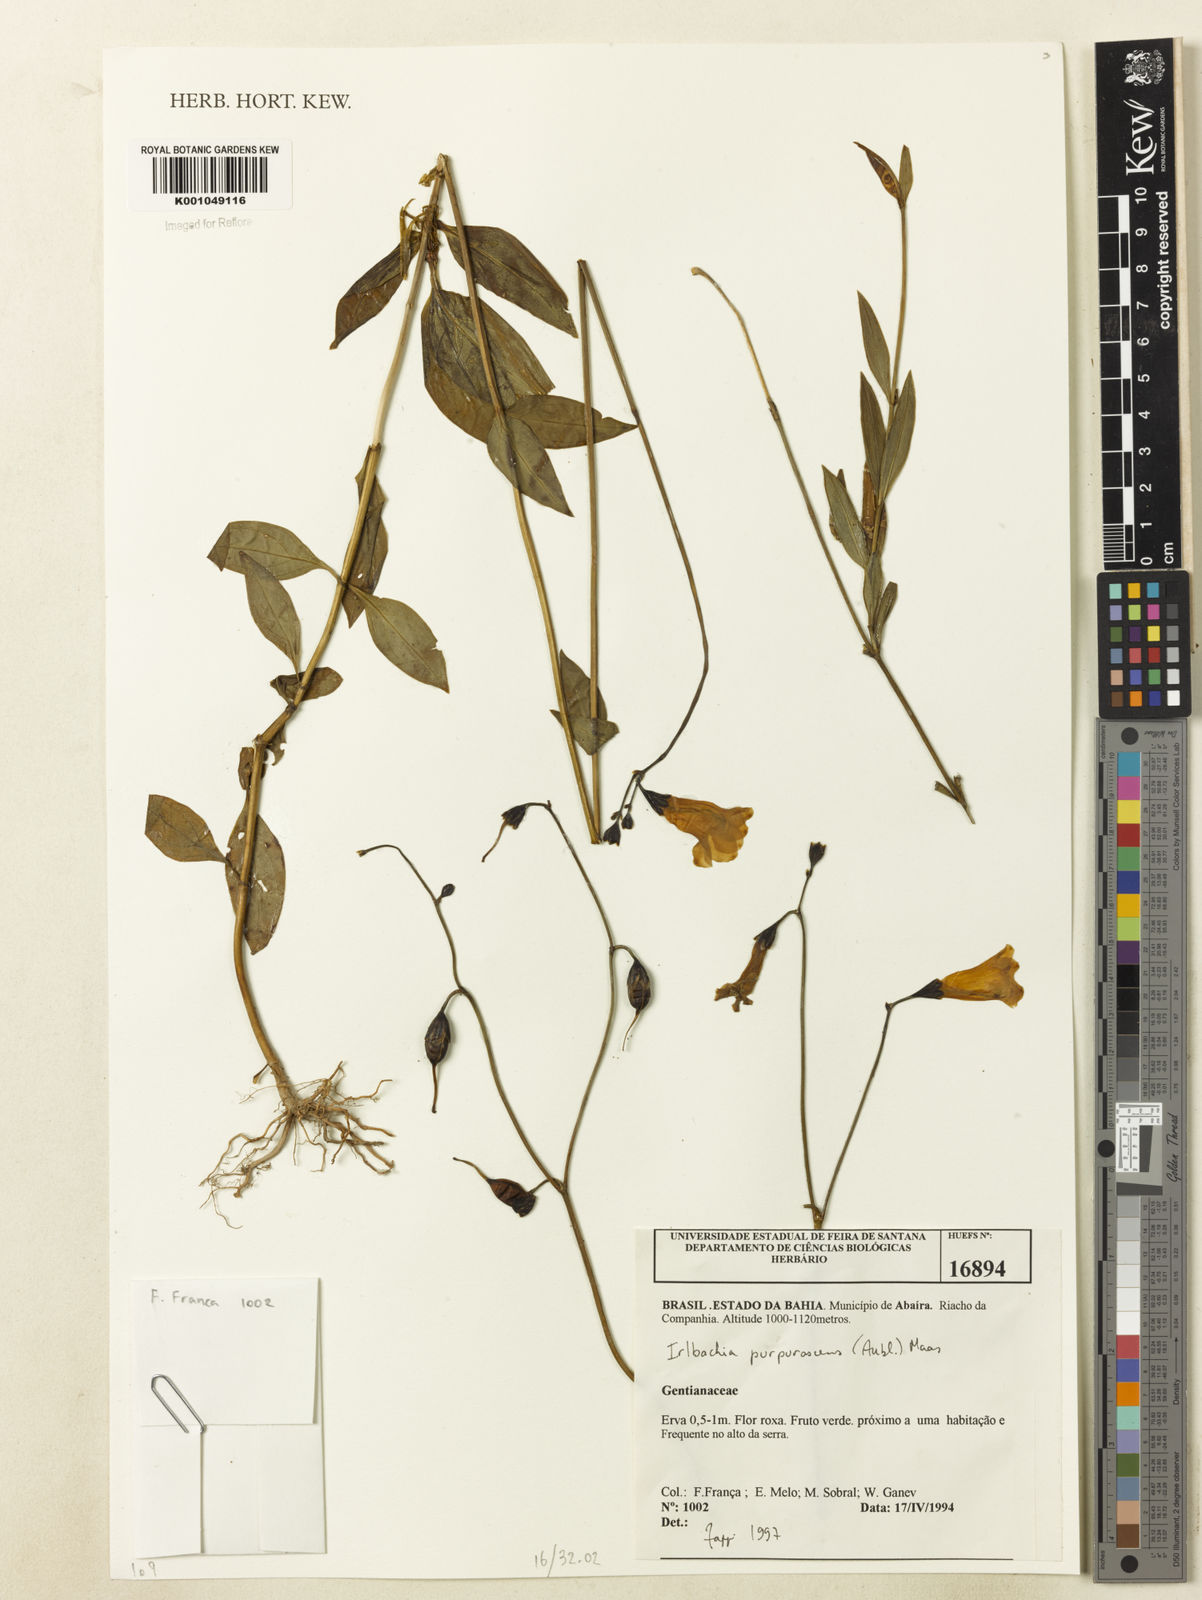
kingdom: Plantae
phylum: Tracheophyta
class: Magnoliopsida
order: Gentianales
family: Gentianaceae
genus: Chelonanthus
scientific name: Chelonanthus purpurascens
